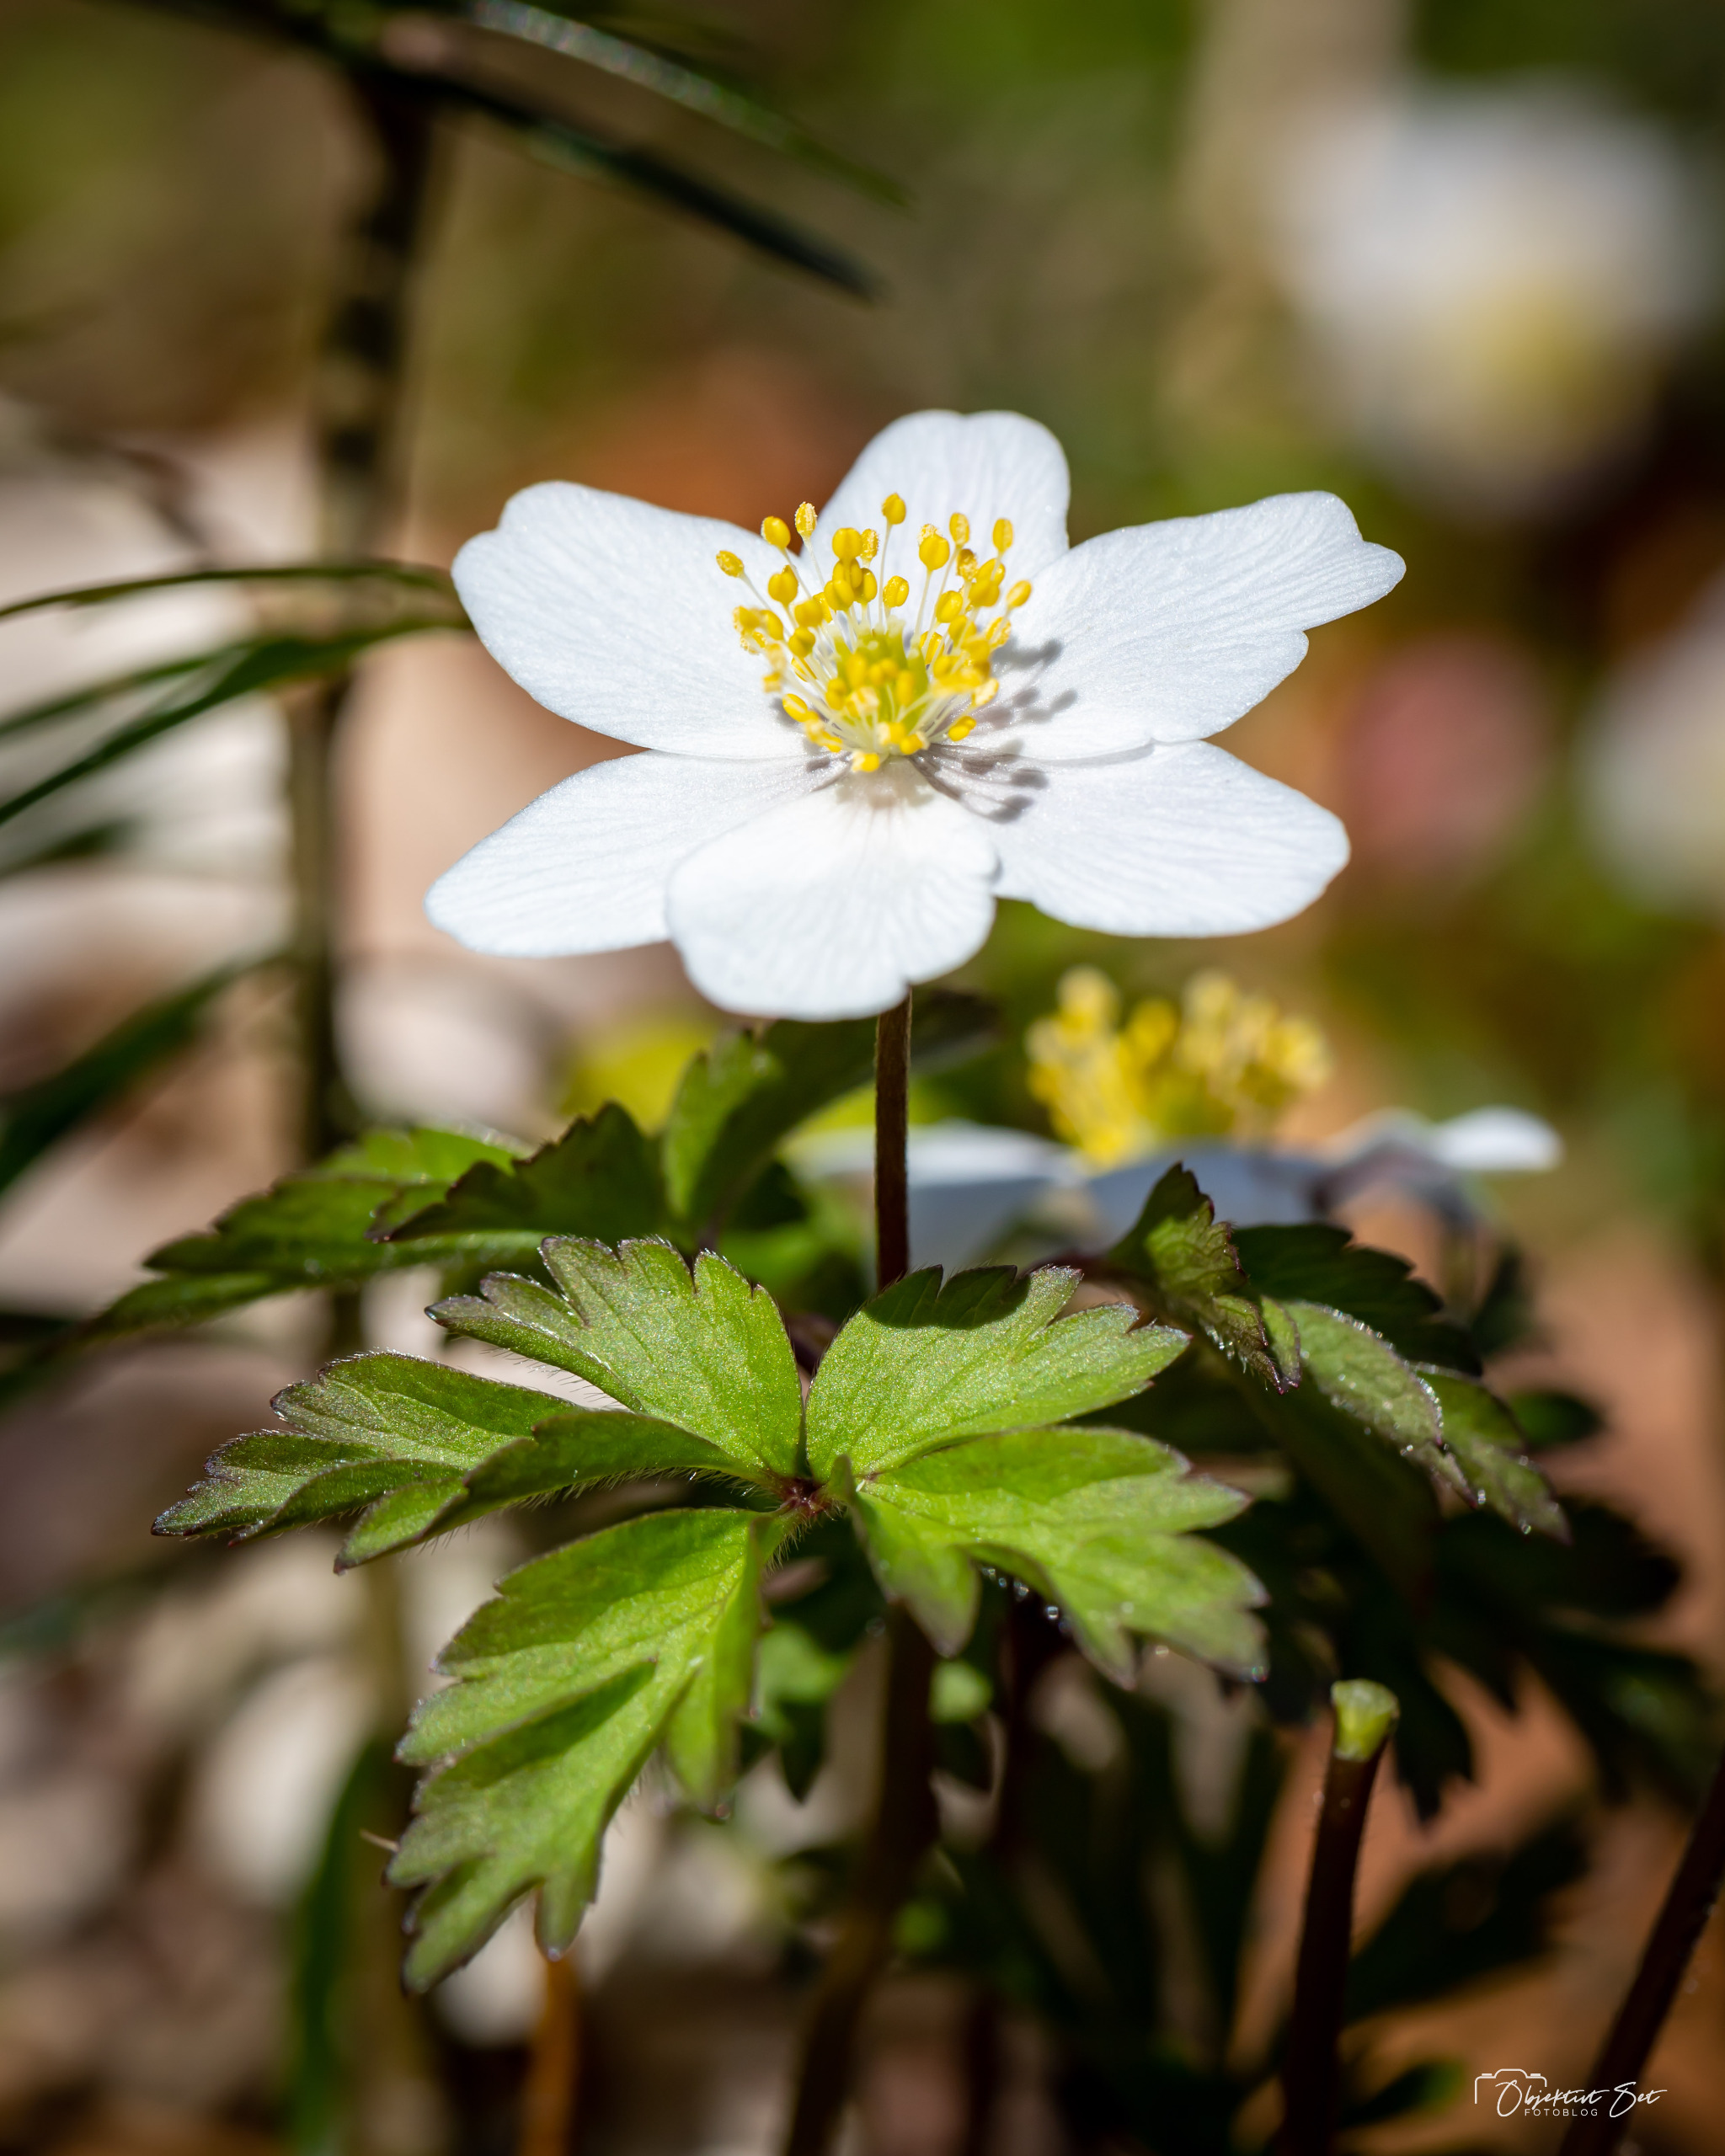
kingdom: Plantae
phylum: Tracheophyta
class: Magnoliopsida
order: Ranunculales
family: Ranunculaceae
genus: Anemone
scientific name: Anemone nemorosa
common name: Hvid anemone
